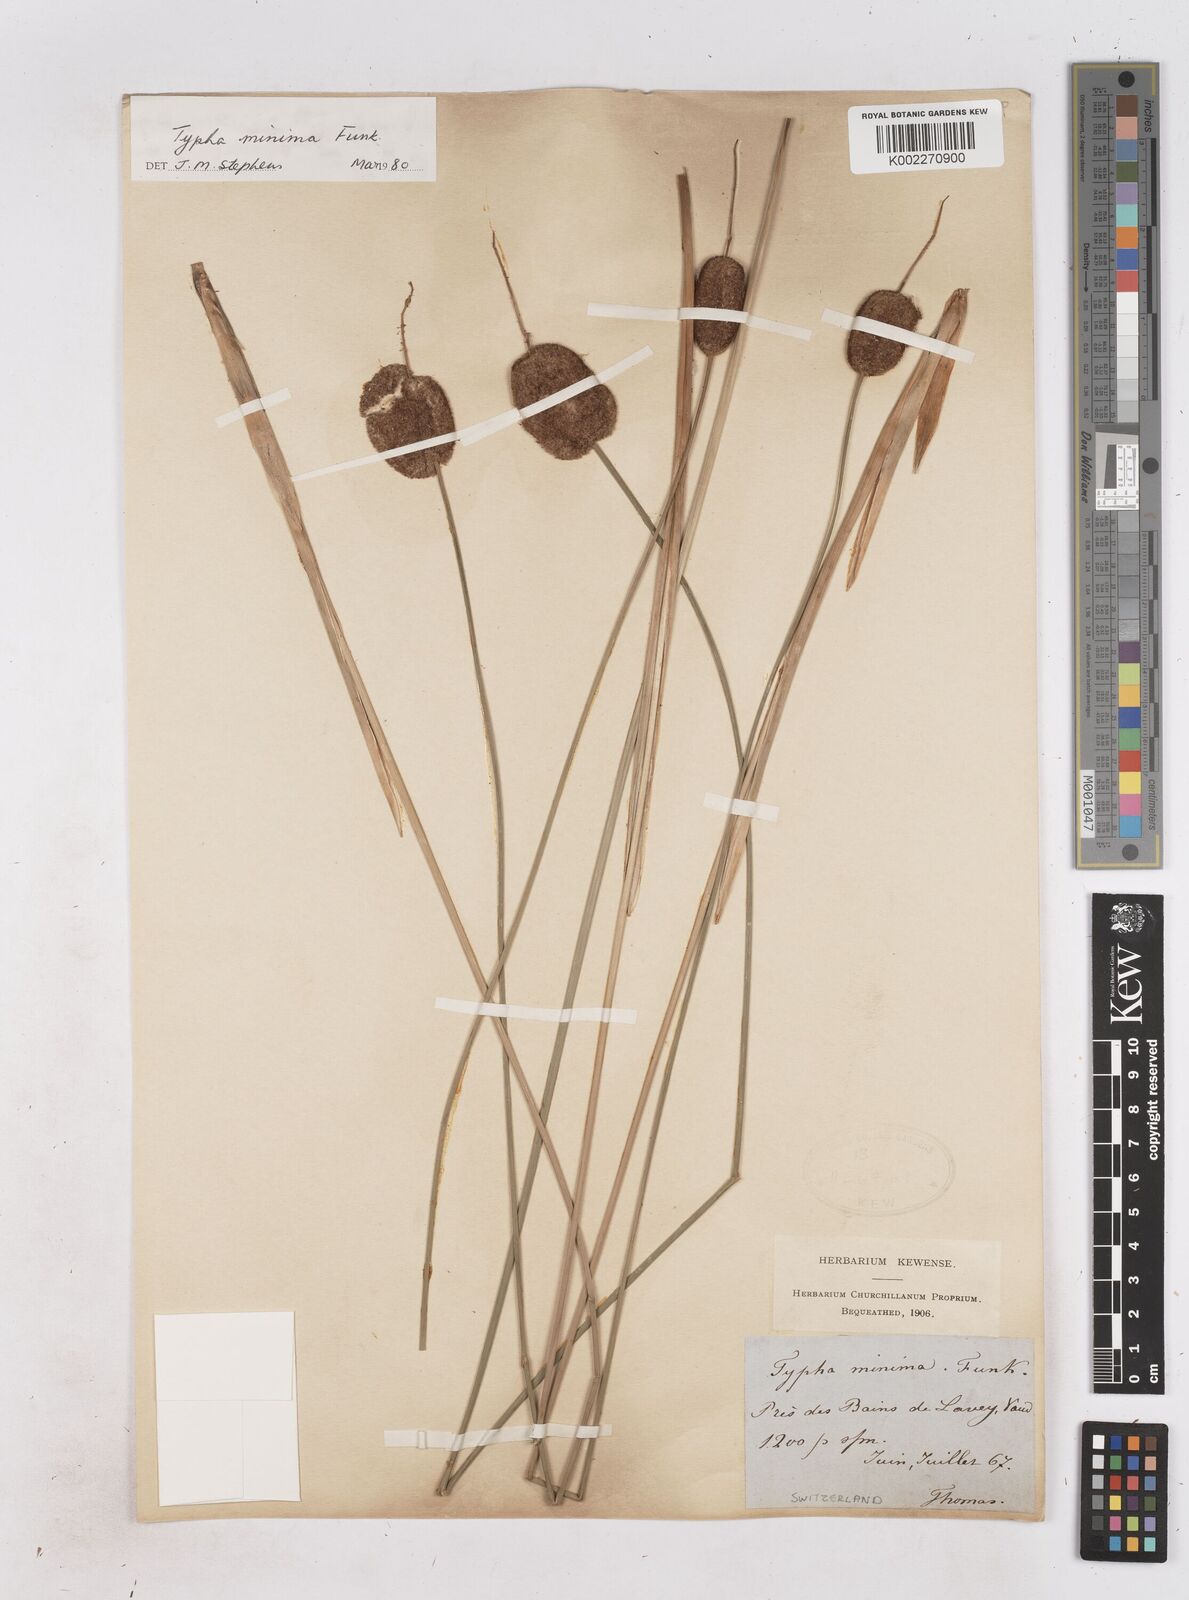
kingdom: Plantae
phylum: Tracheophyta
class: Liliopsida
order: Poales
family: Typhaceae
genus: Typha
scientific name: Typha minima
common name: Dwarf bulrush
